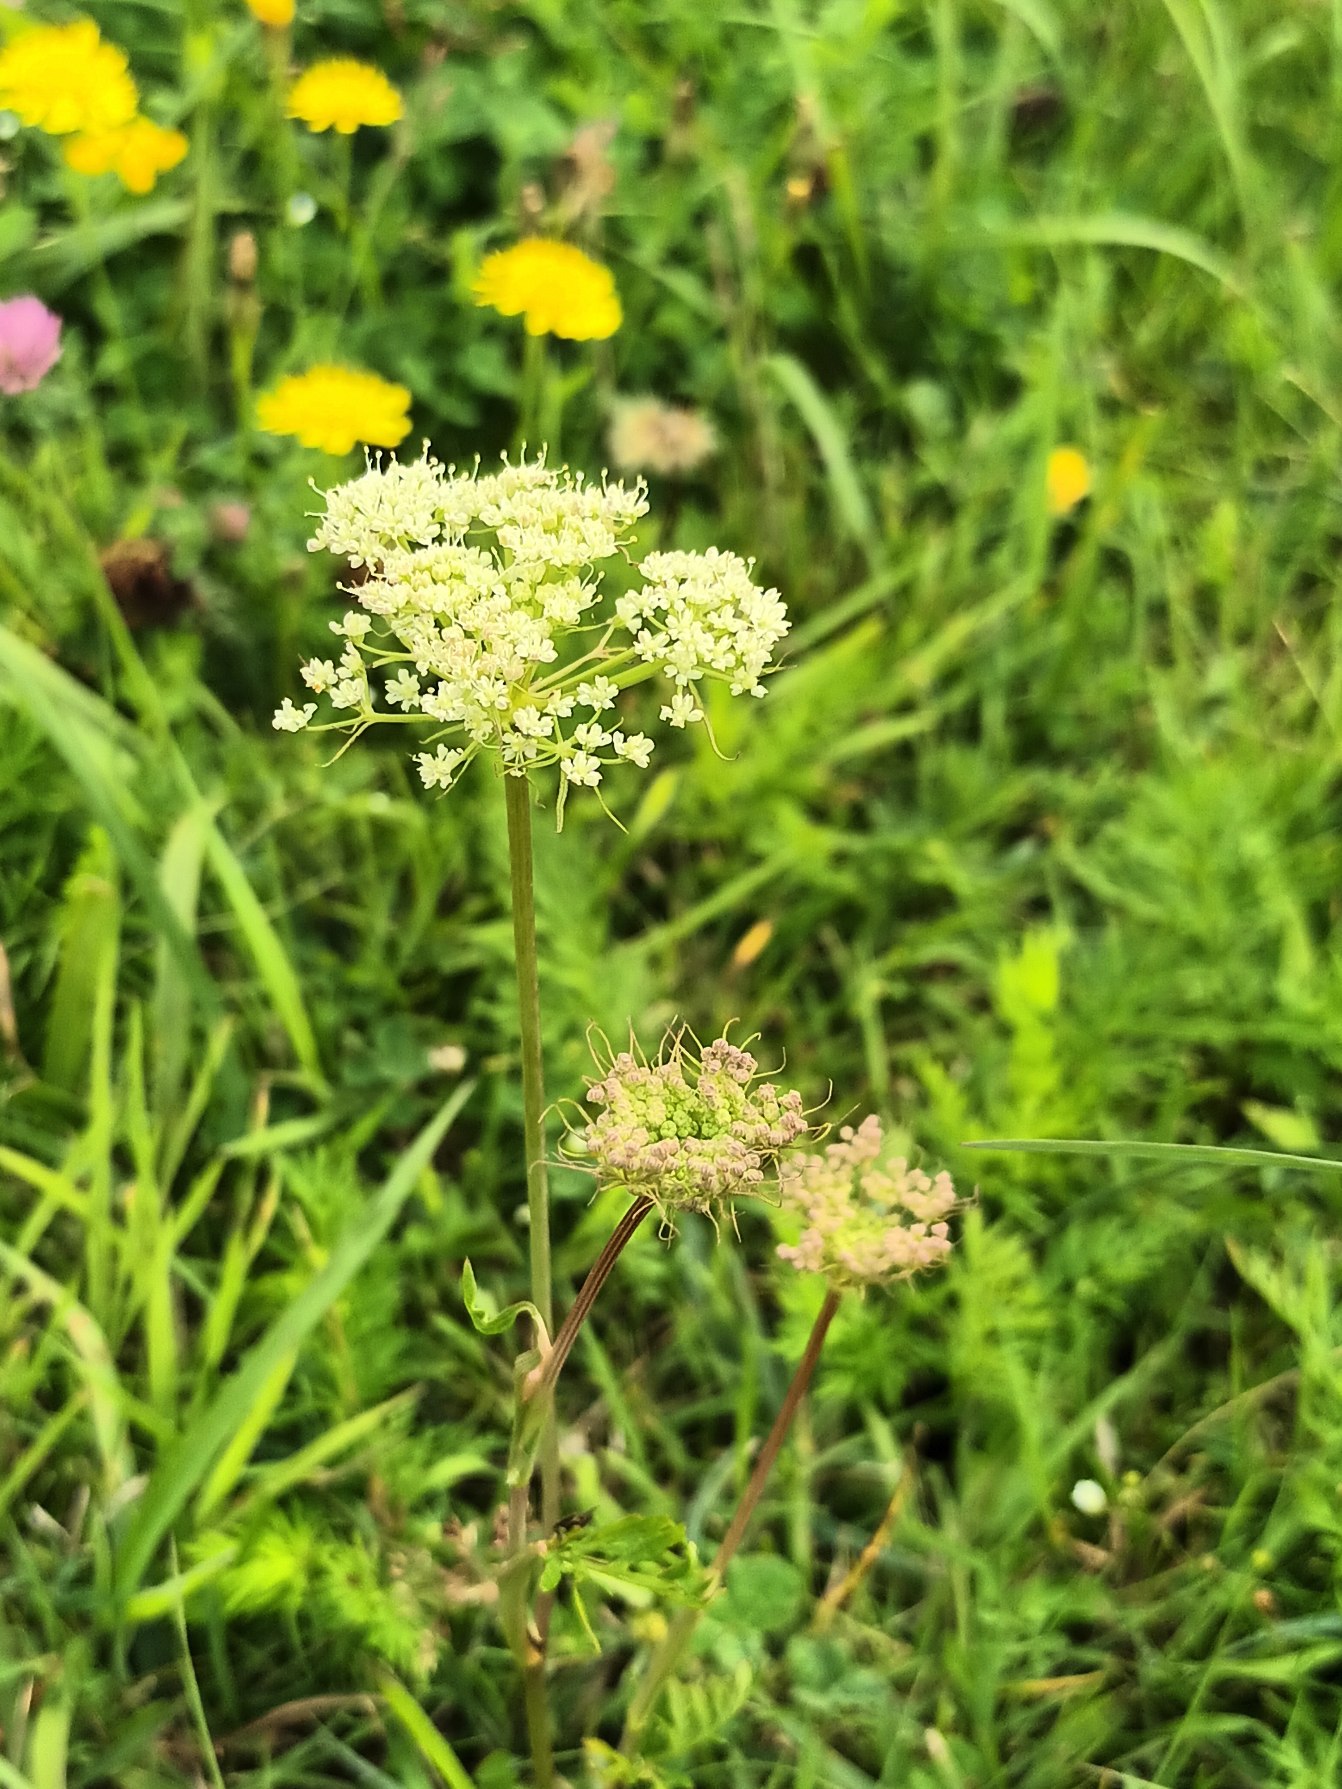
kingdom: Plantae
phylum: Tracheophyta
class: Magnoliopsida
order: Apiales
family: Apiaceae
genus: Kadenia
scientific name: Kadenia dubia
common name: Brændeskærm
